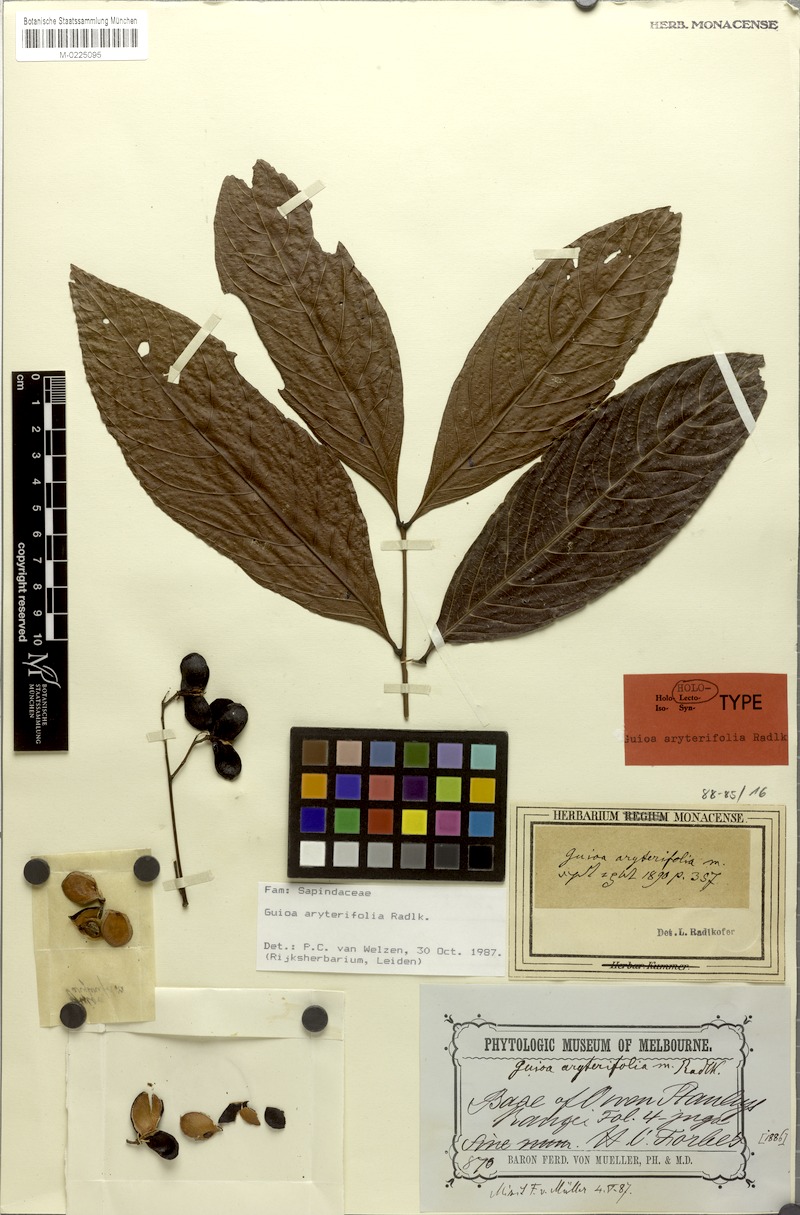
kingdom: Plantae
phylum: Tracheophyta
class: Magnoliopsida
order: Sapindales
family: Sapindaceae
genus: Guioa
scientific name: Guioa aryterifolia
